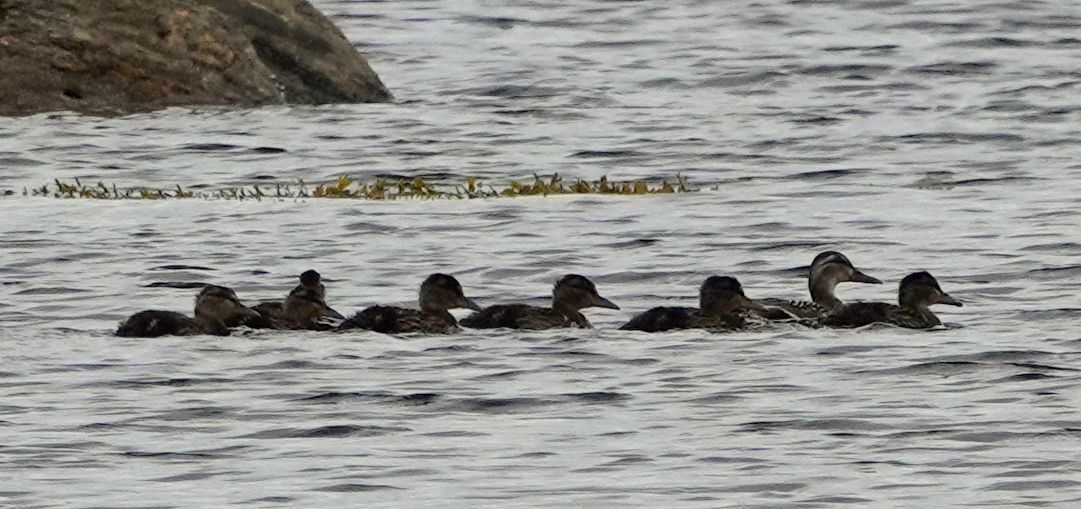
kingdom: Animalia
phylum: Chordata
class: Aves
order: Anseriformes
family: Anatidae
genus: Anas
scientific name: Anas platyrhynchos
